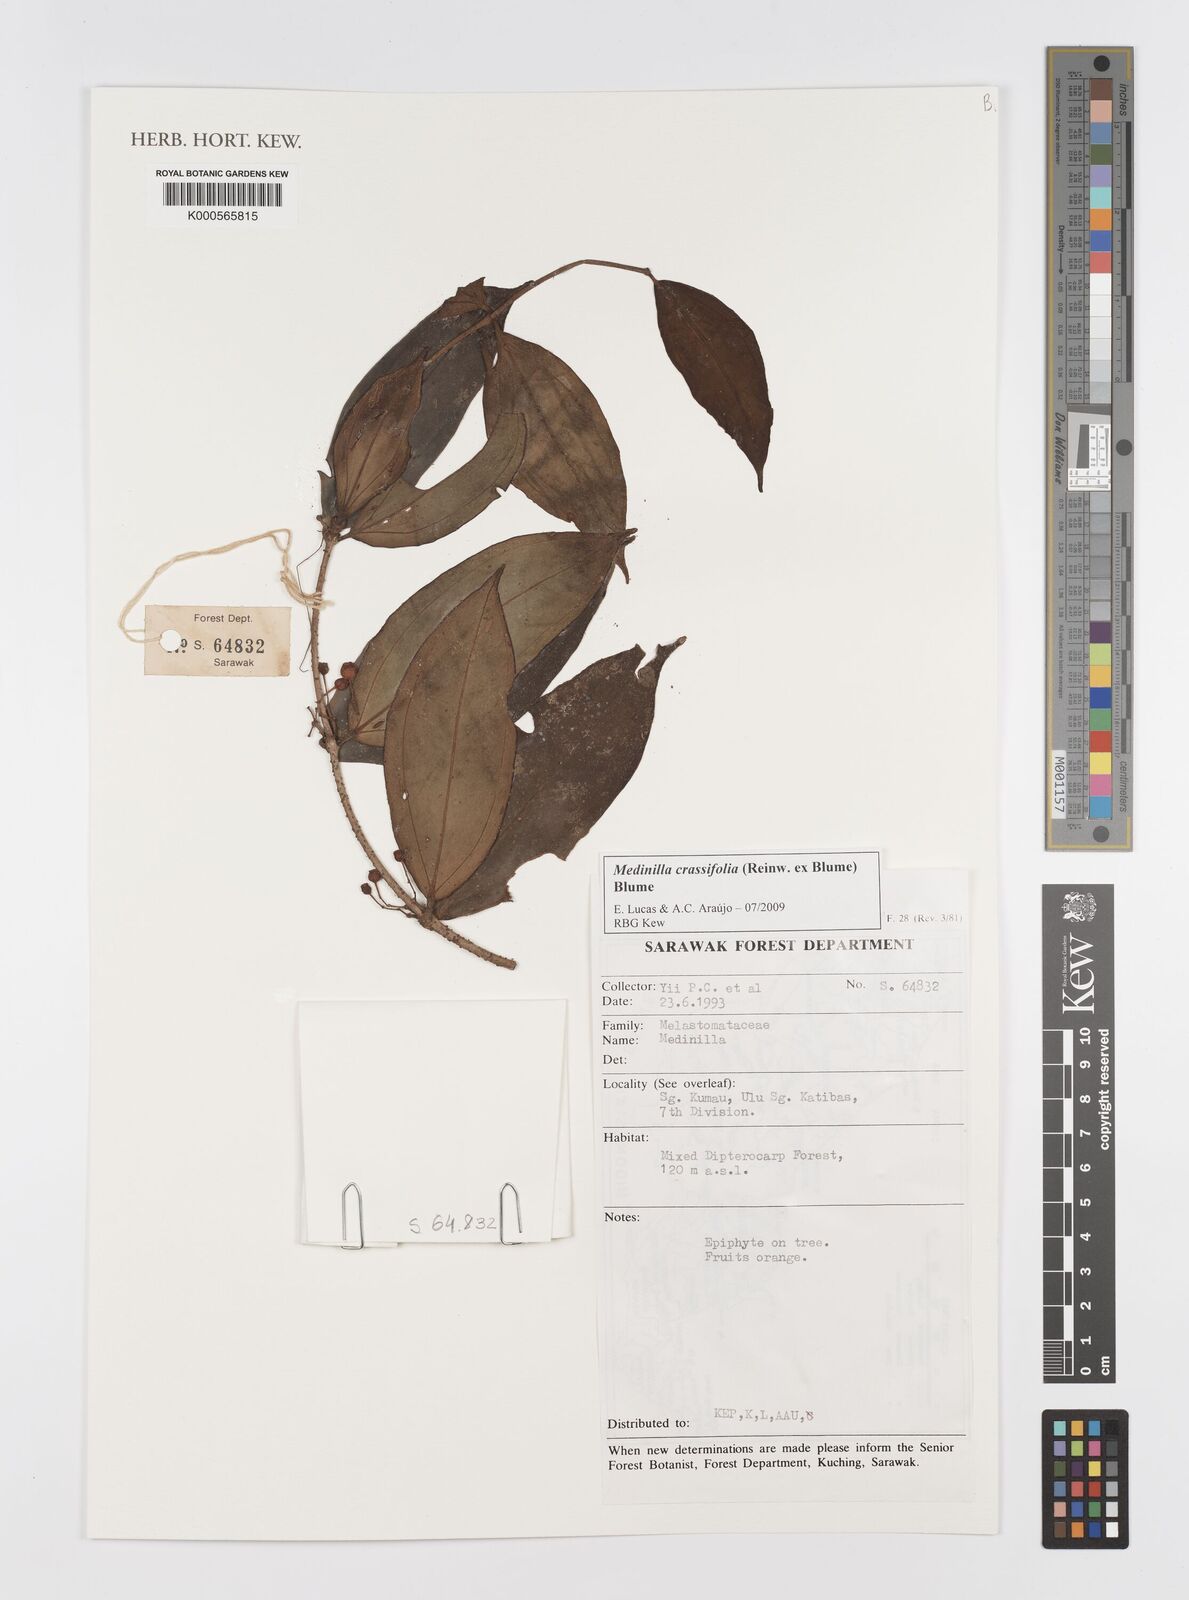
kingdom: Plantae
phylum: Tracheophyta
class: Magnoliopsida
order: Myrtales
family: Melastomataceae
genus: Medinilla
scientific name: Medinilla crassifolia
